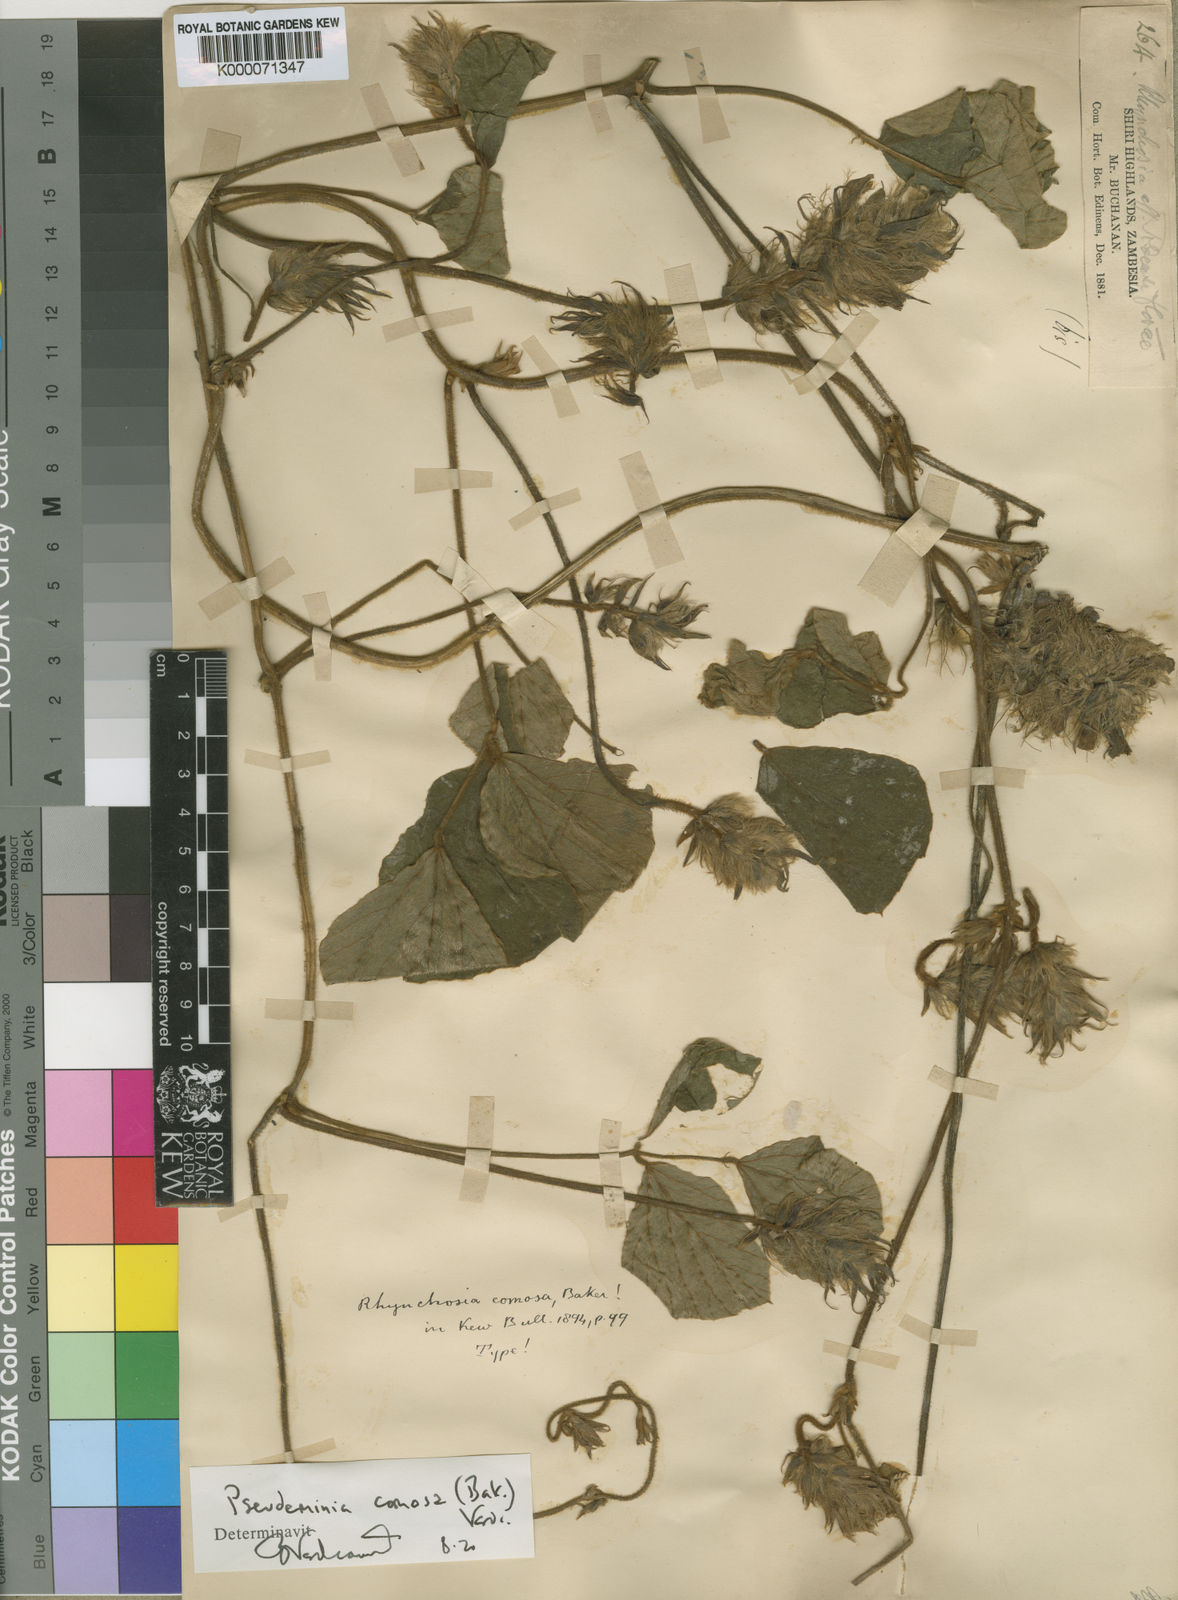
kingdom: Plantae
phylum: Tracheophyta
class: Magnoliopsida
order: Fabales
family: Fabaceae
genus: Pseudeminia
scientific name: Pseudeminia comosa
